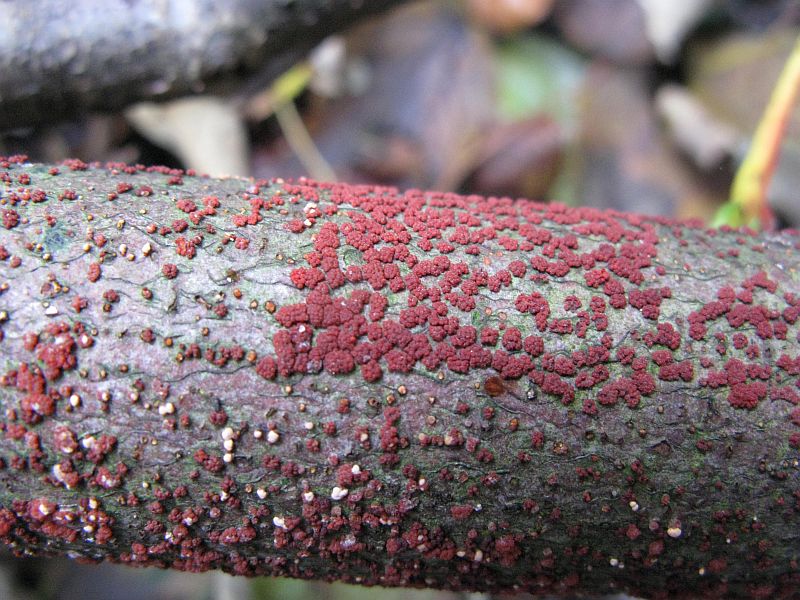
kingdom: Fungi
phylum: Ascomycota
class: Sordariomycetes
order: Hypocreales
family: Nectriaceae
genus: Nectria
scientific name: Nectria cinnabarina
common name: almindelig cinnobersvamp
